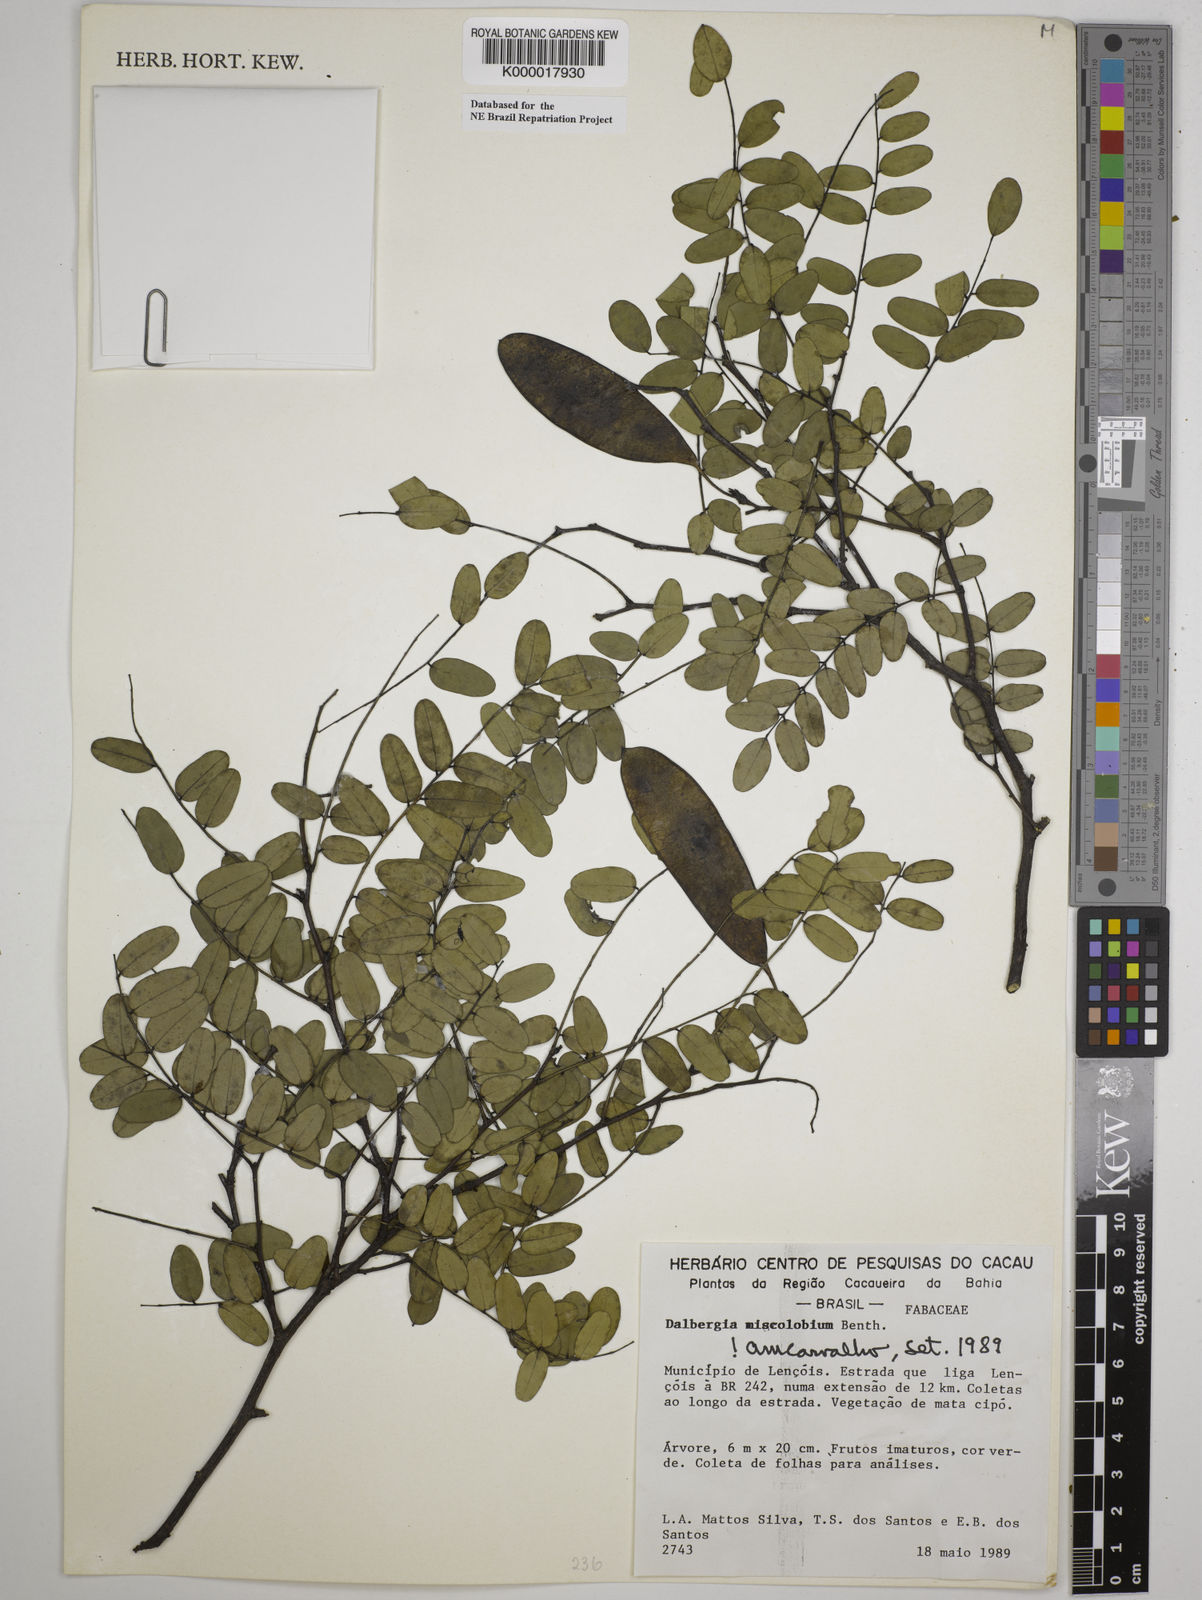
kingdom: Plantae
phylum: Tracheophyta
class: Magnoliopsida
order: Fabales
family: Fabaceae
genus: Dalbergia
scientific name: Dalbergia miscolobium
